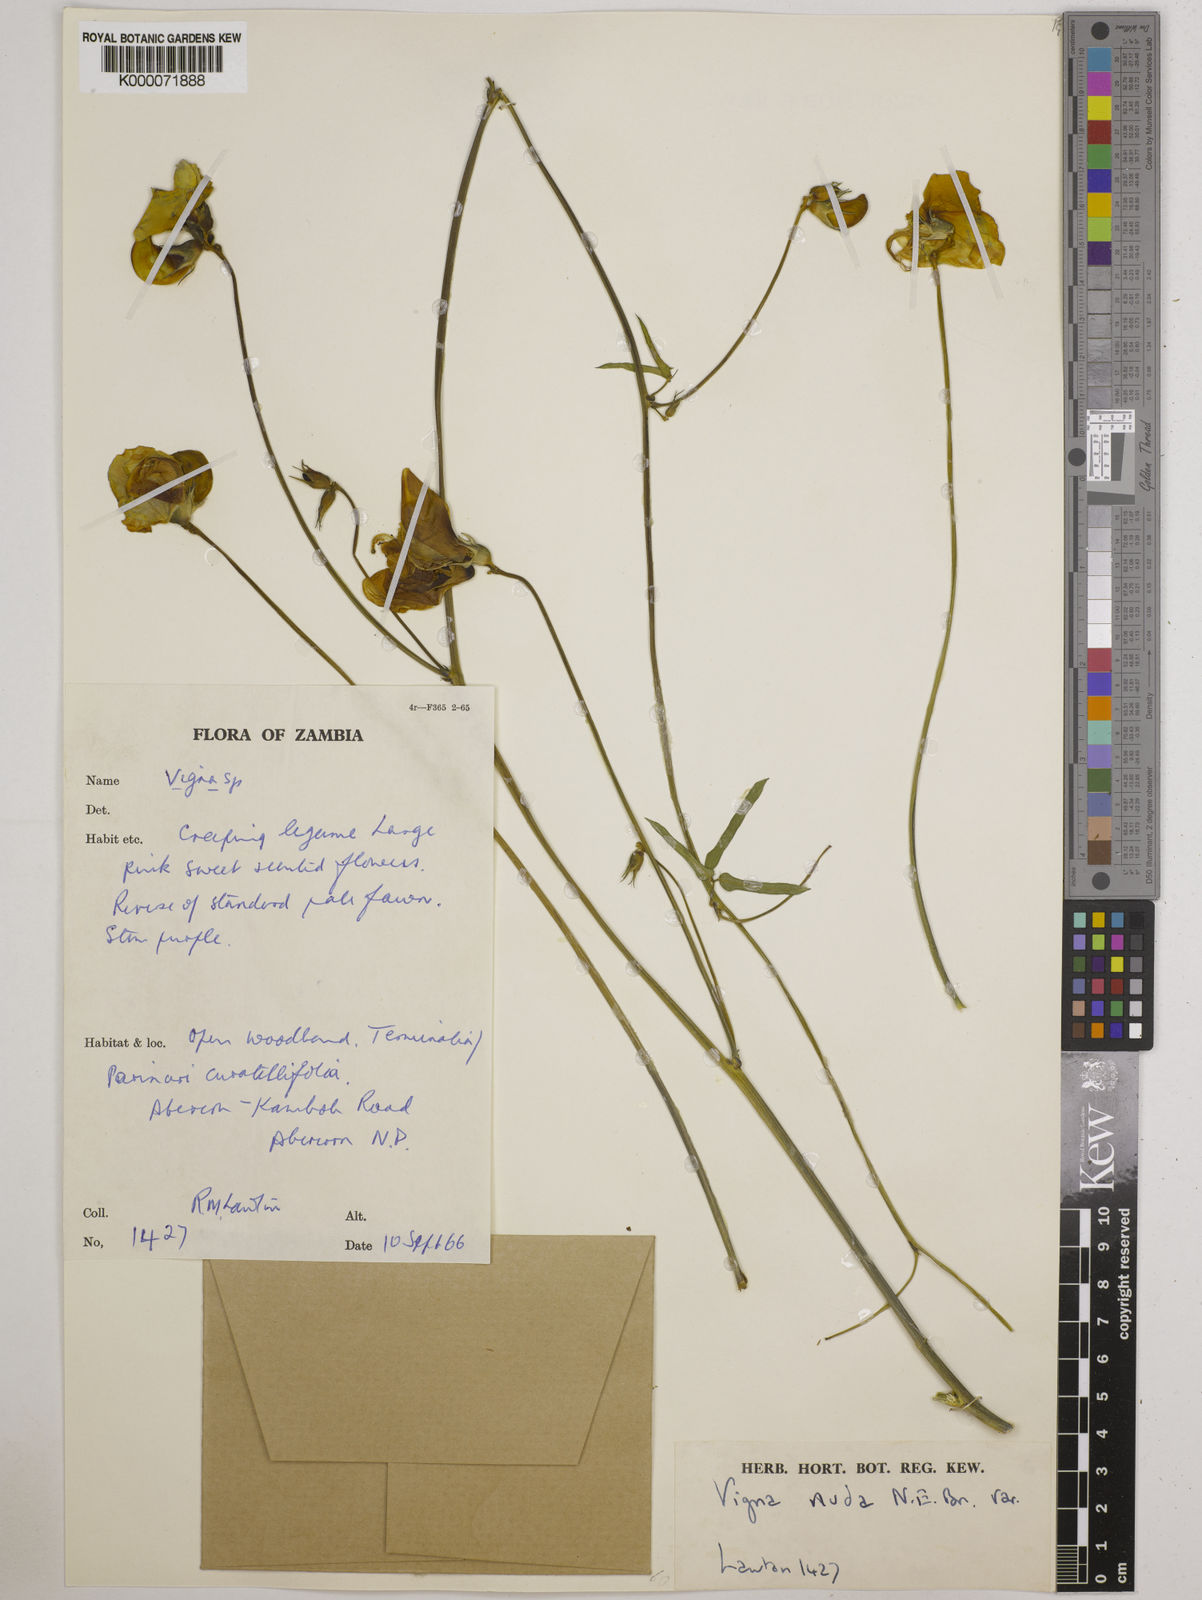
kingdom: Plantae
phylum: Tracheophyta
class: Magnoliopsida
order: Fabales
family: Fabaceae
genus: Vigna
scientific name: Vigna antunesii
